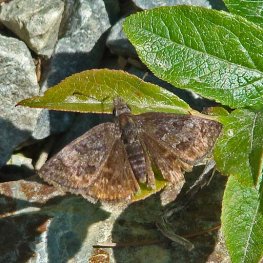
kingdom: Animalia
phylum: Arthropoda
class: Insecta
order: Lepidoptera
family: Hesperiidae
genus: Erynnis
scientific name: Erynnis icelus
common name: Dreamy Duskywing
